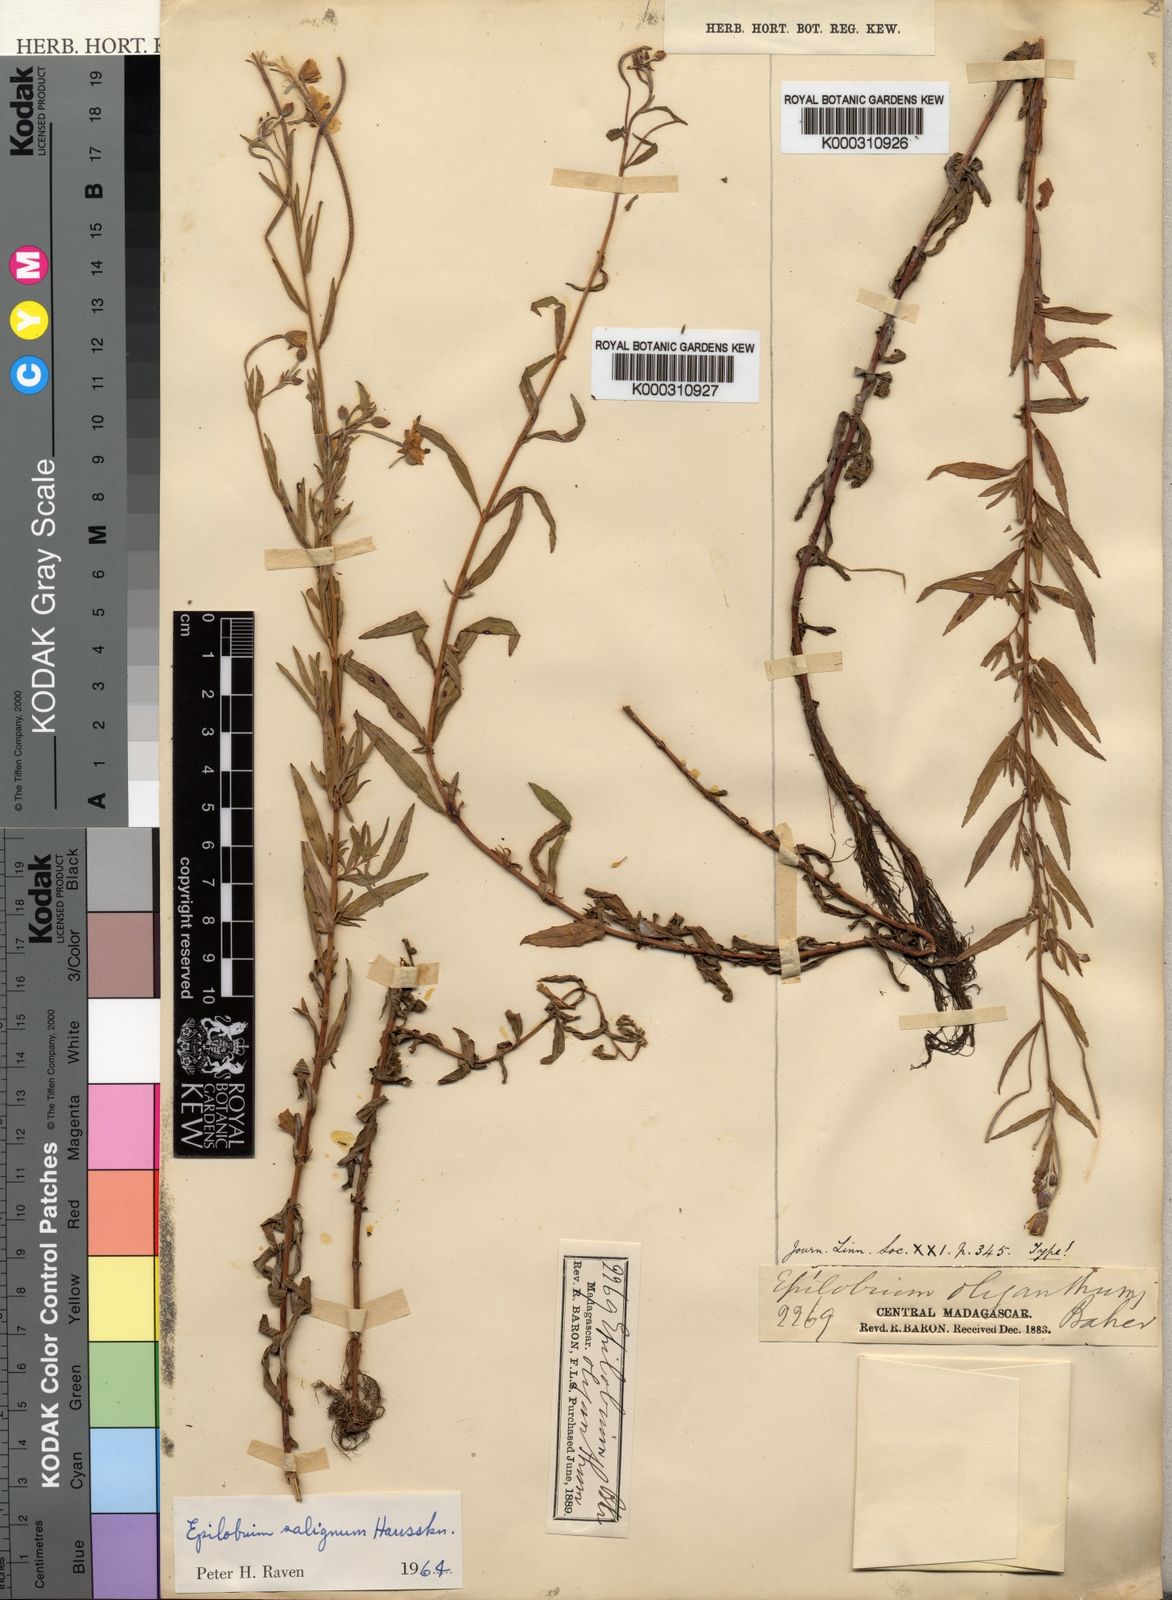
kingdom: Plantae
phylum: Tracheophyta
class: Magnoliopsida
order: Myrtales
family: Onagraceae
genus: Epilobium
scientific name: Epilobium salignum
